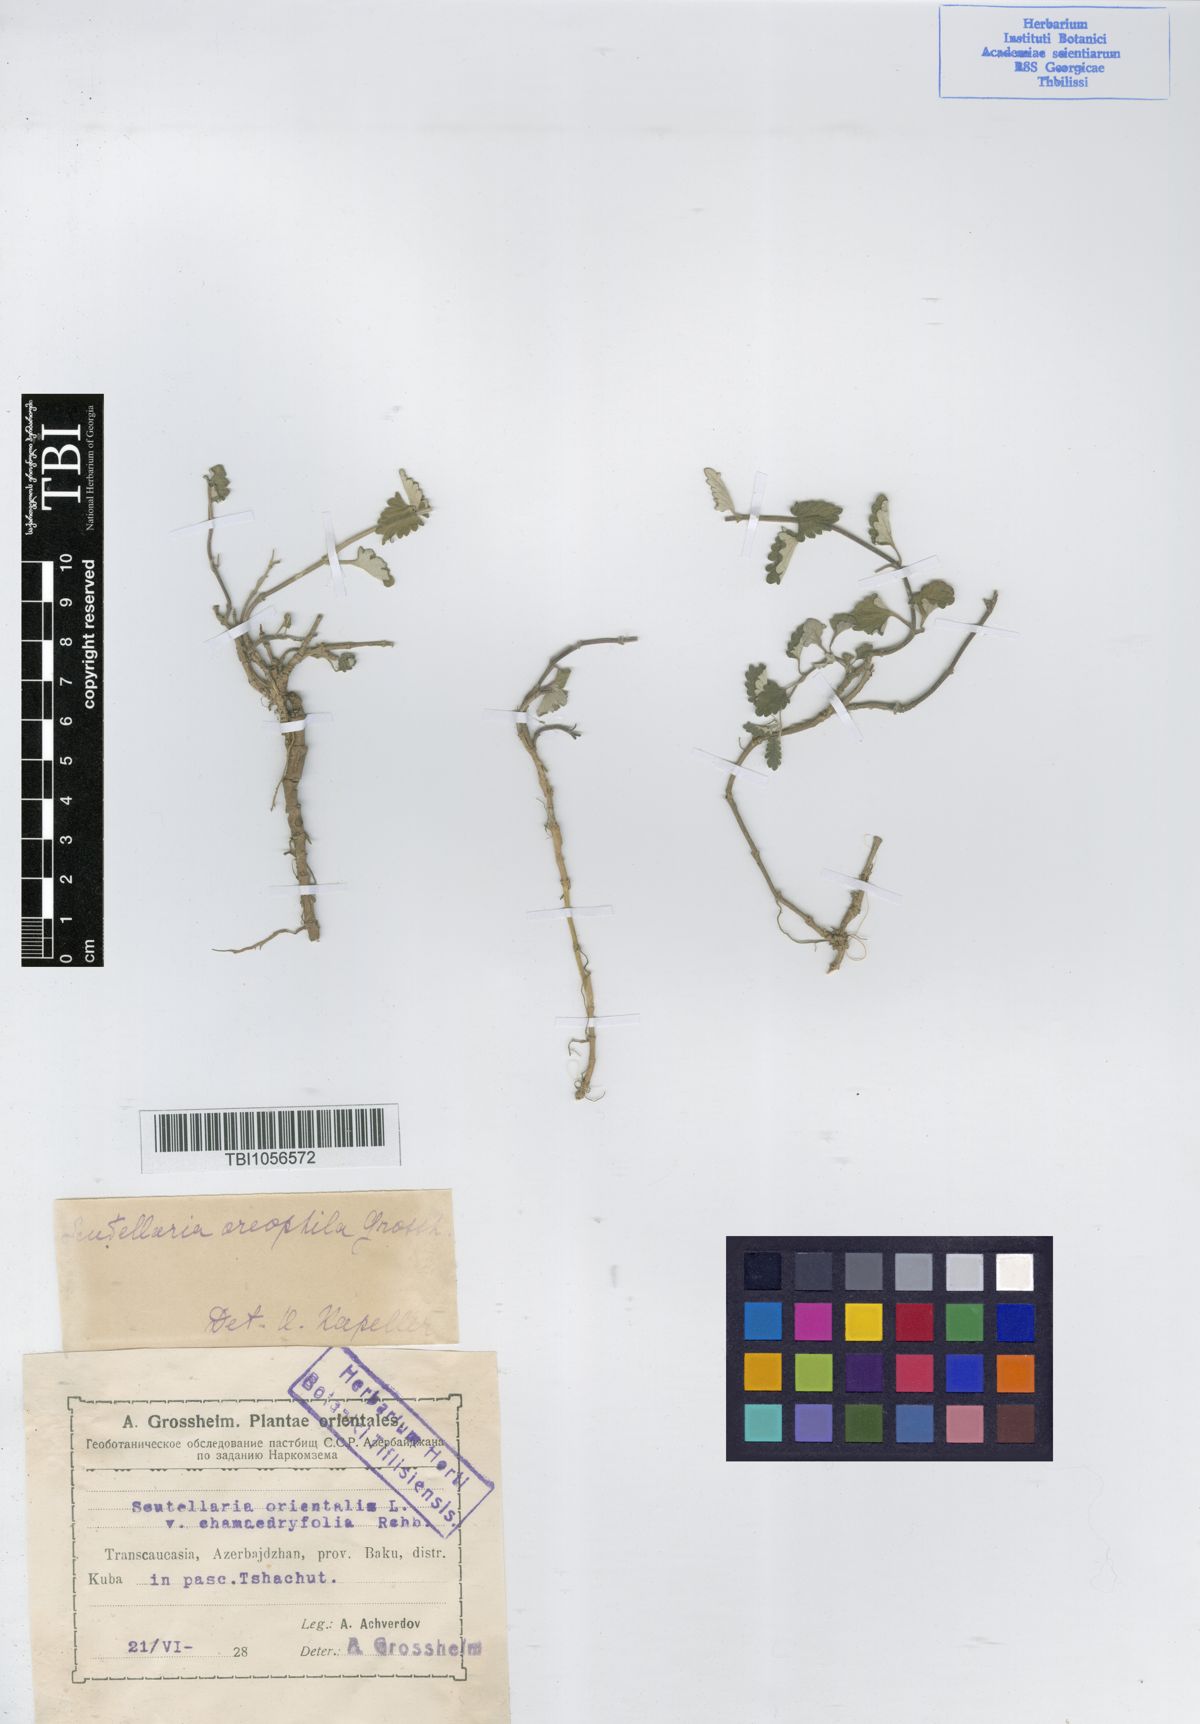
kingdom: Plantae
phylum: Tracheophyta
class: Magnoliopsida
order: Lamiales
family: Lamiaceae
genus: Scutellaria
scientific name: Scutellaria oreophila
